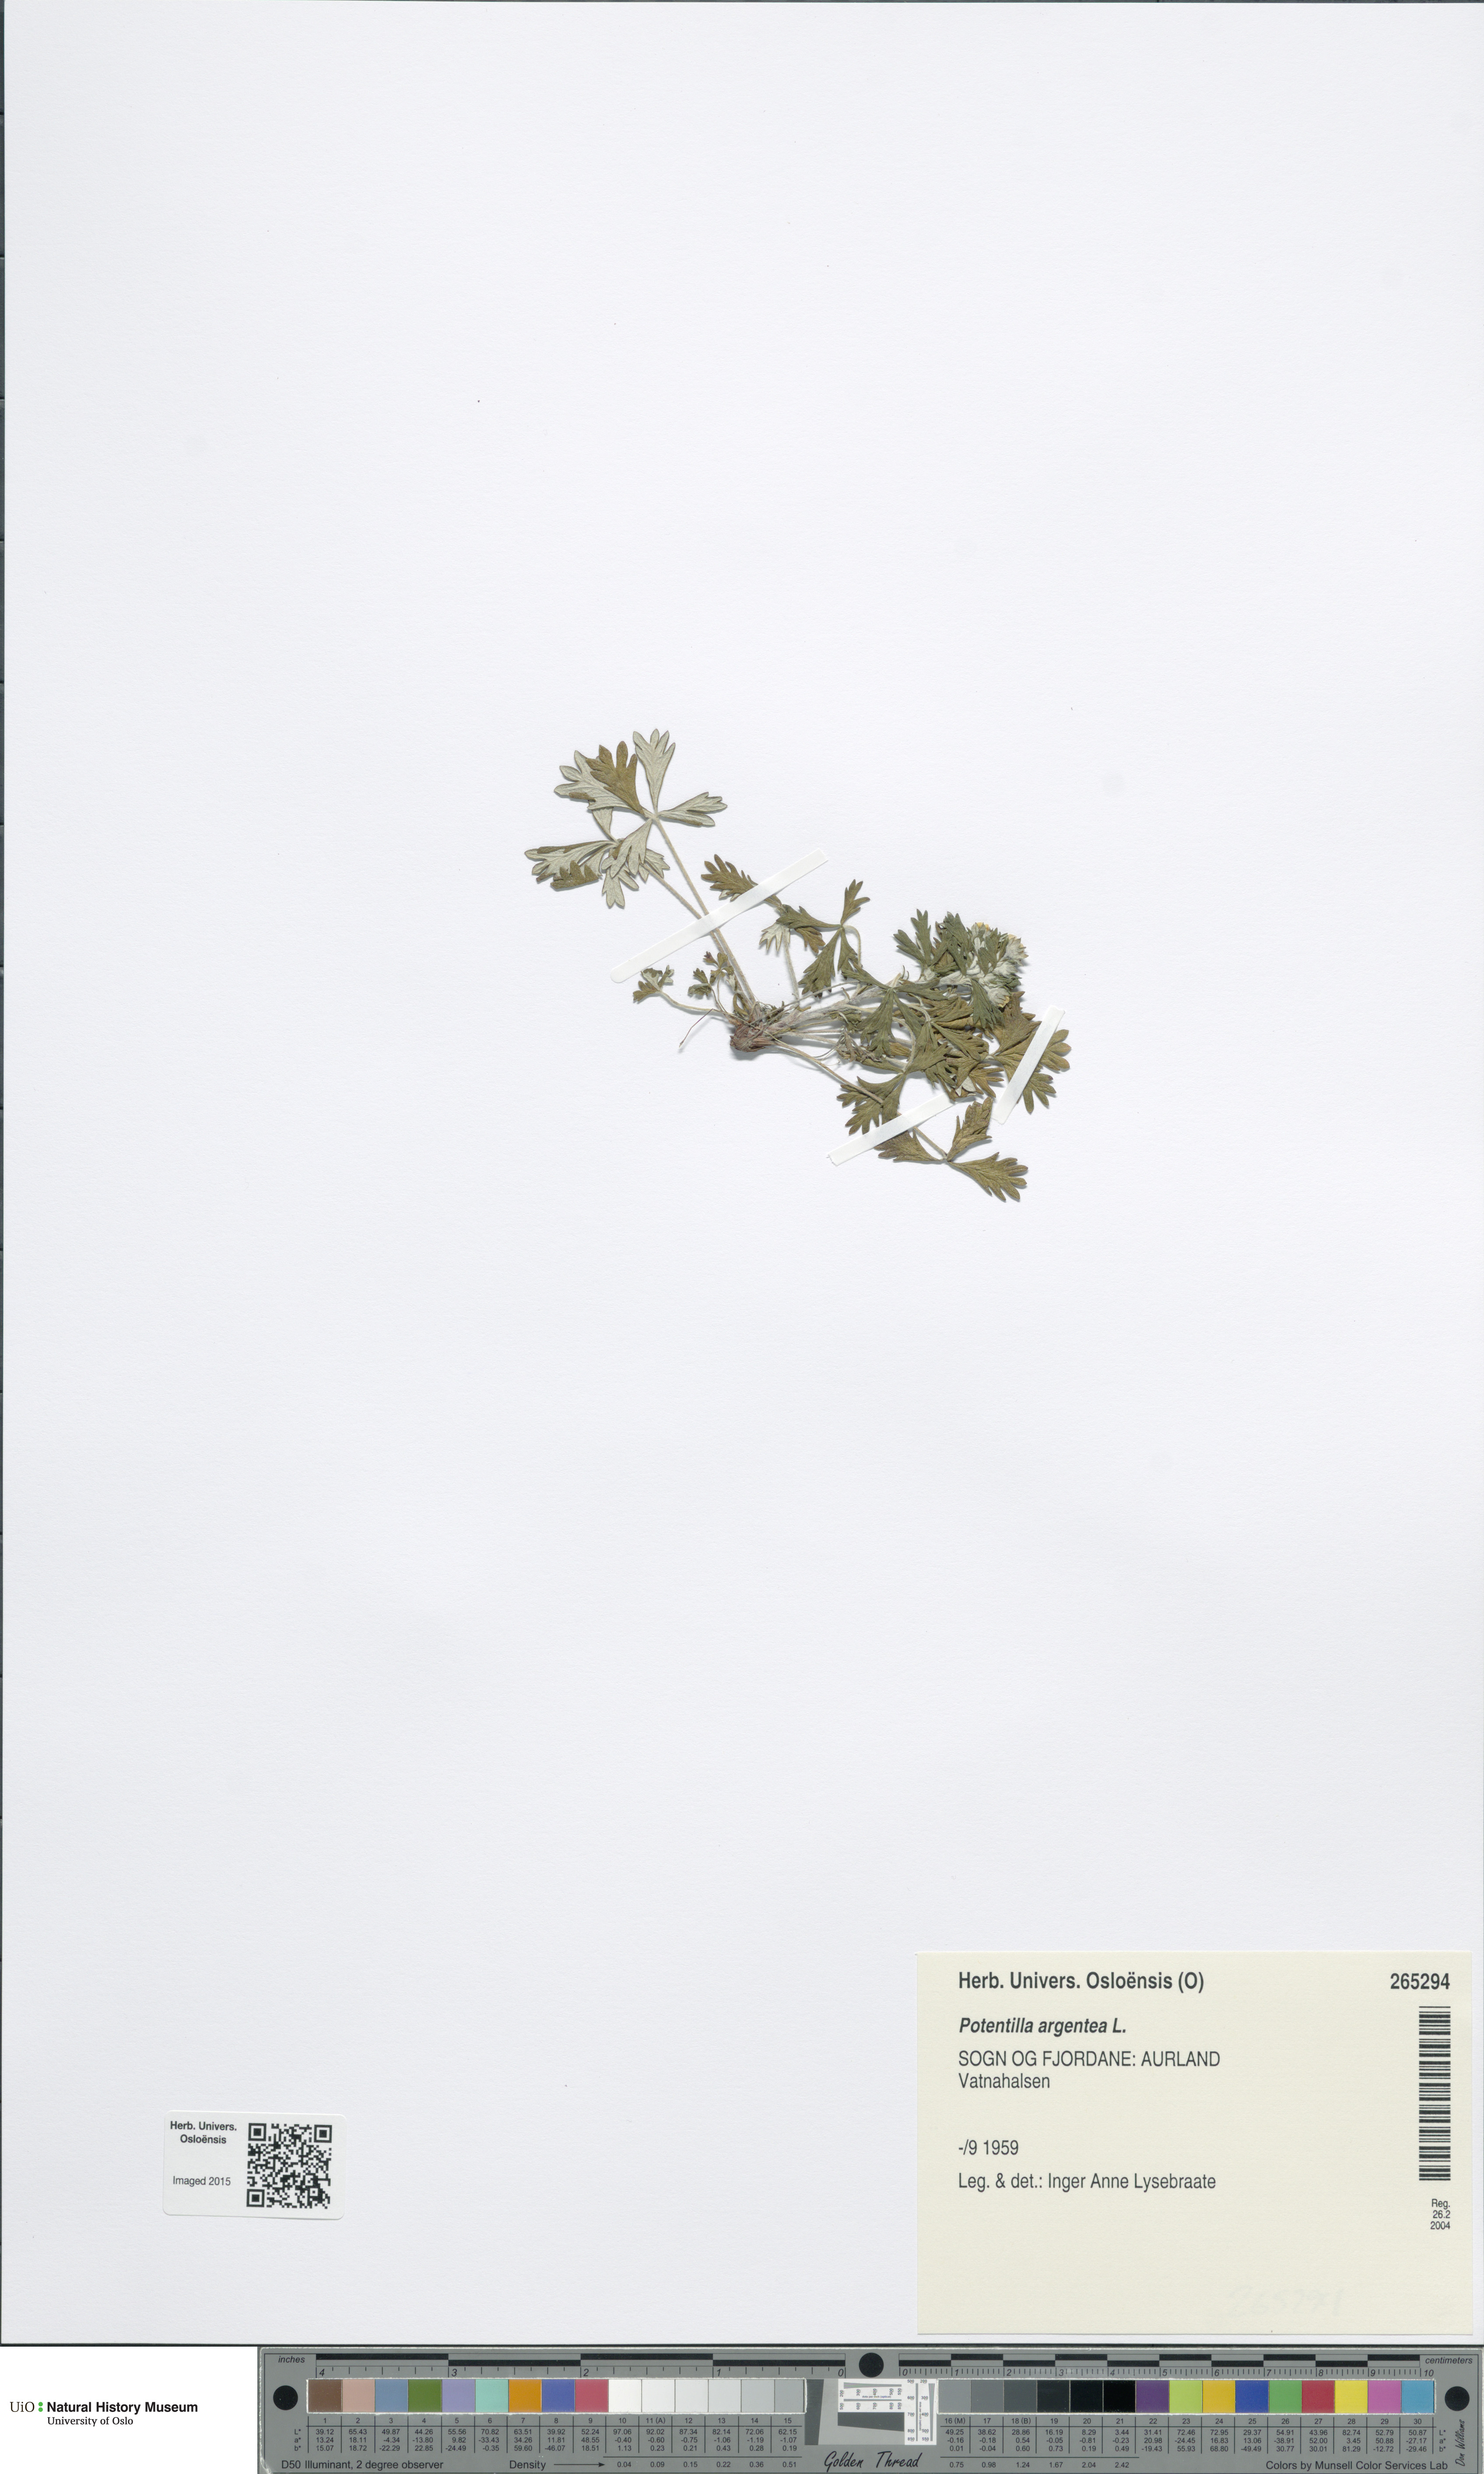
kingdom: Plantae
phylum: Tracheophyta
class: Magnoliopsida
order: Rosales
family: Rosaceae
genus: Potentilla
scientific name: Potentilla argentea
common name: Hoary cinquefoil
